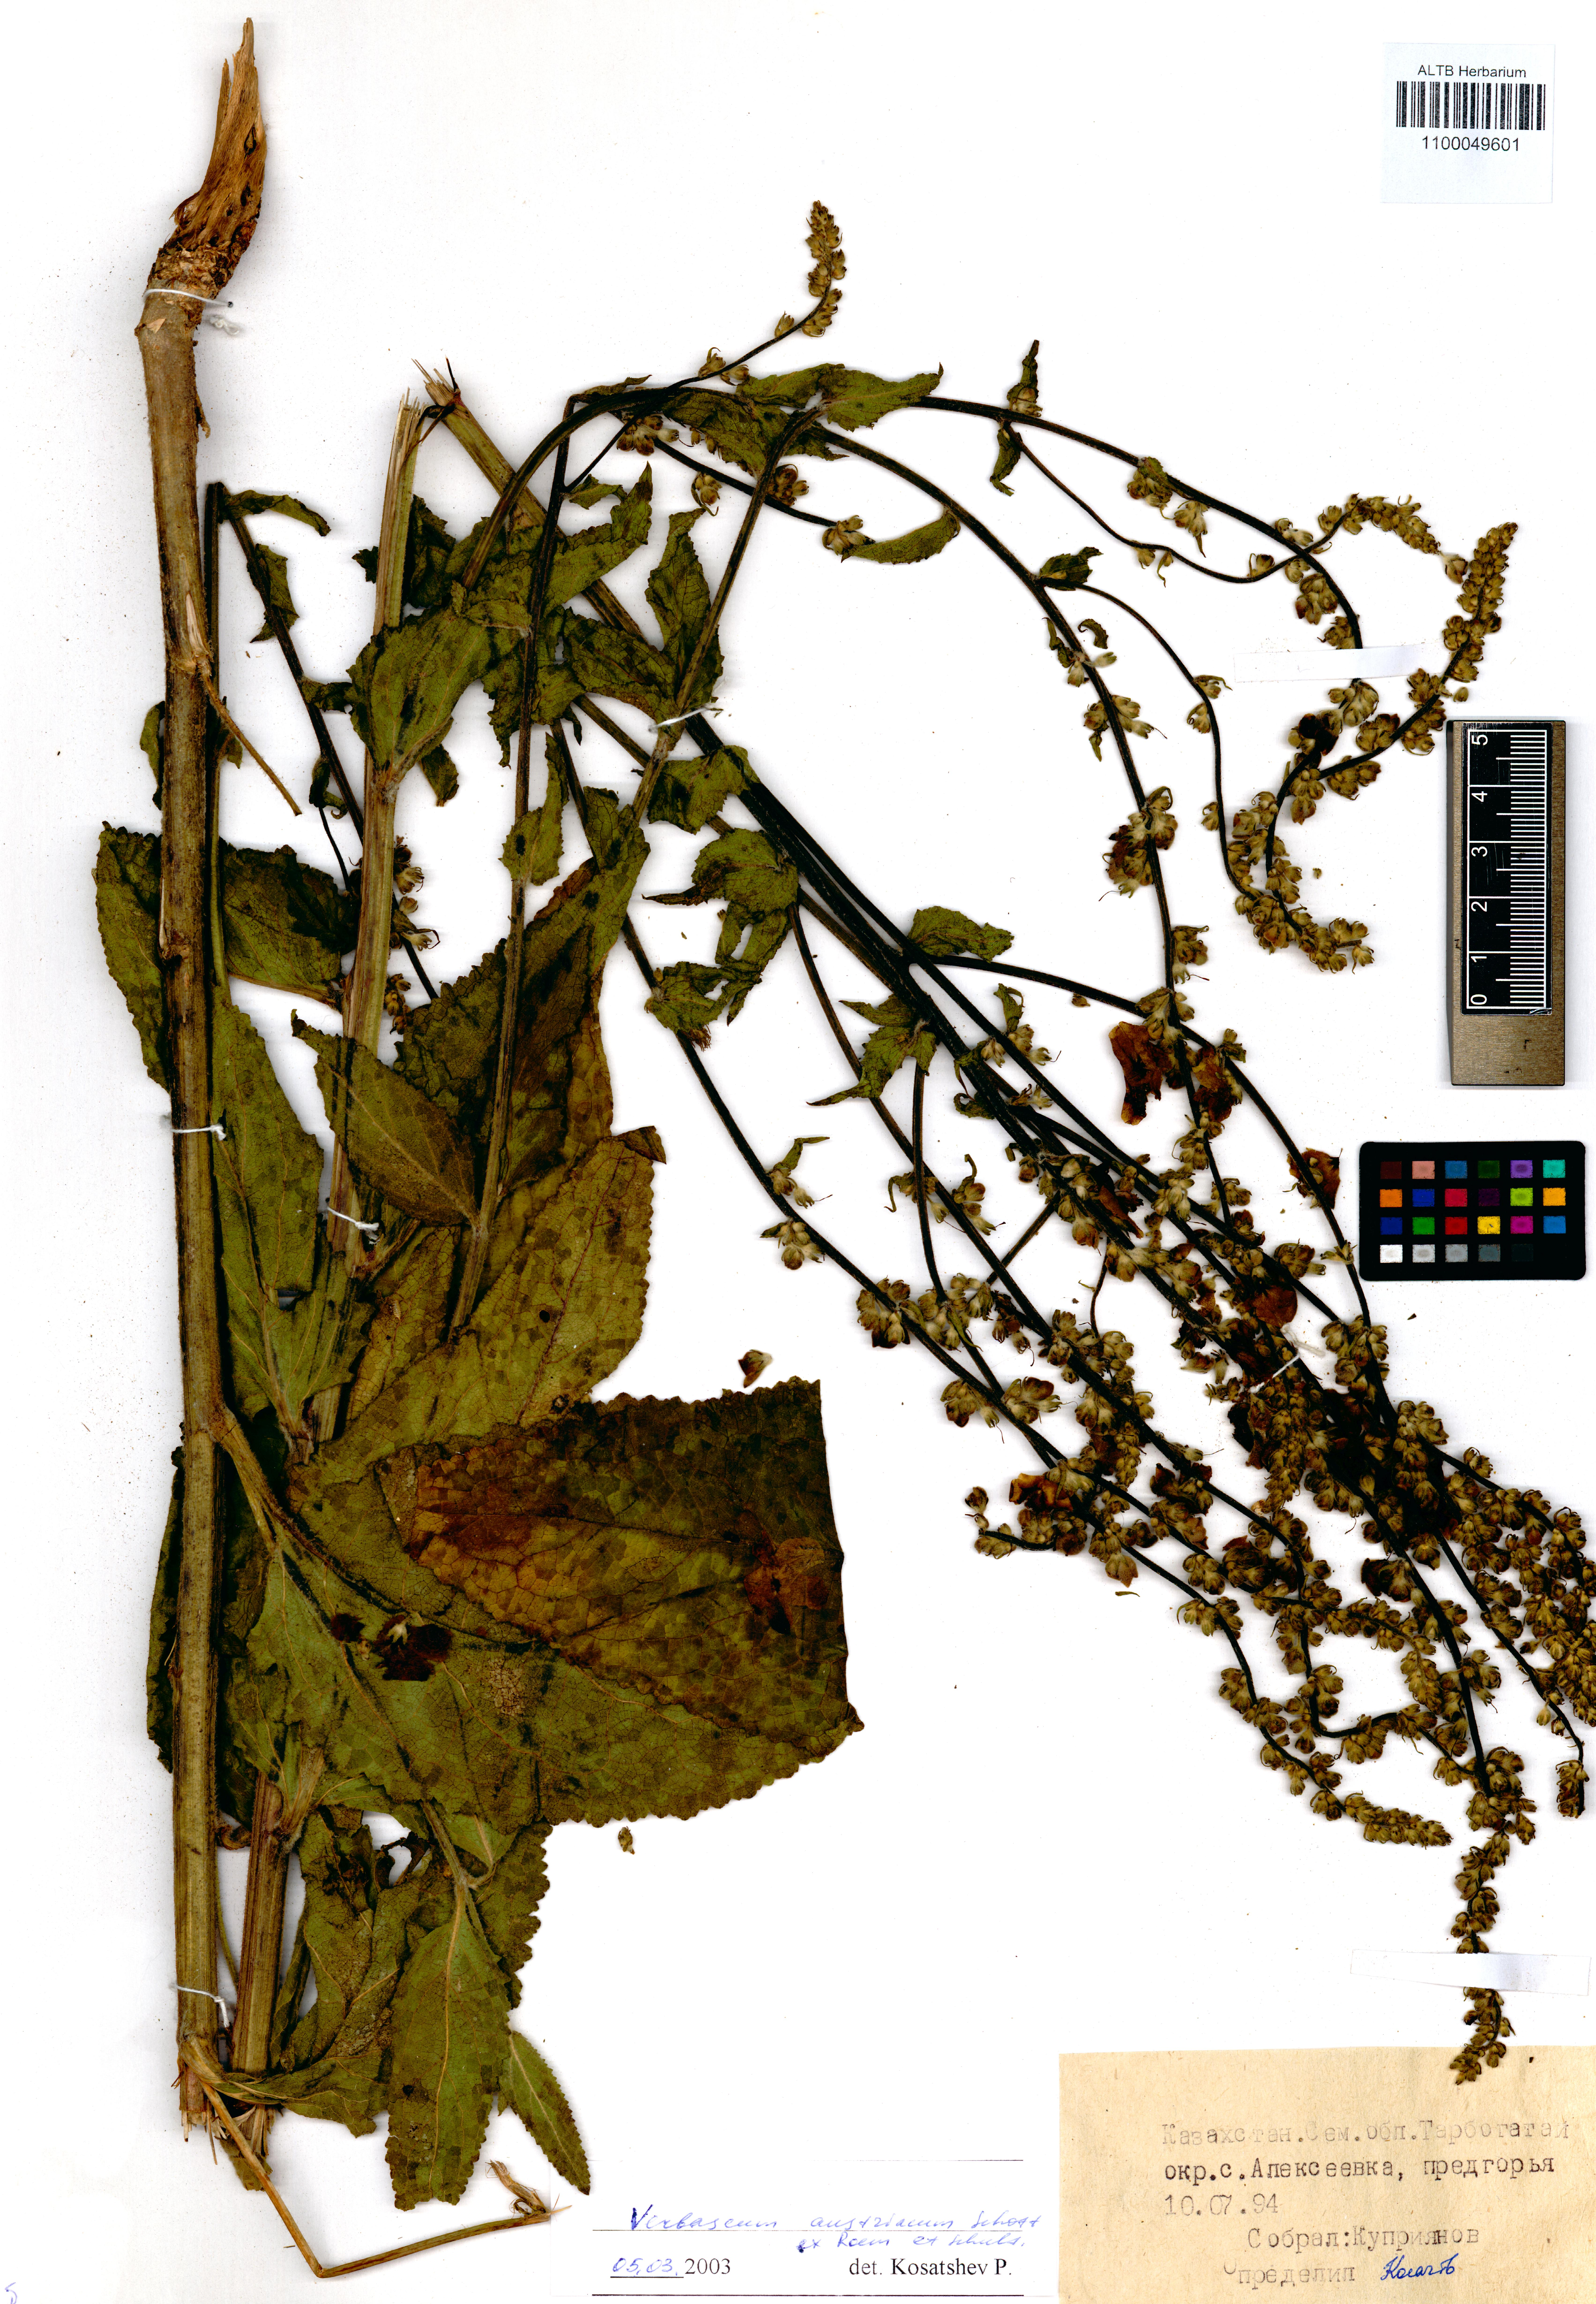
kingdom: Plantae
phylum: Tracheophyta
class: Magnoliopsida
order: Lamiales
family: Scrophulariaceae
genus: Verbascum
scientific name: Verbascum chaixii
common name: Nettle-leaved mullein
